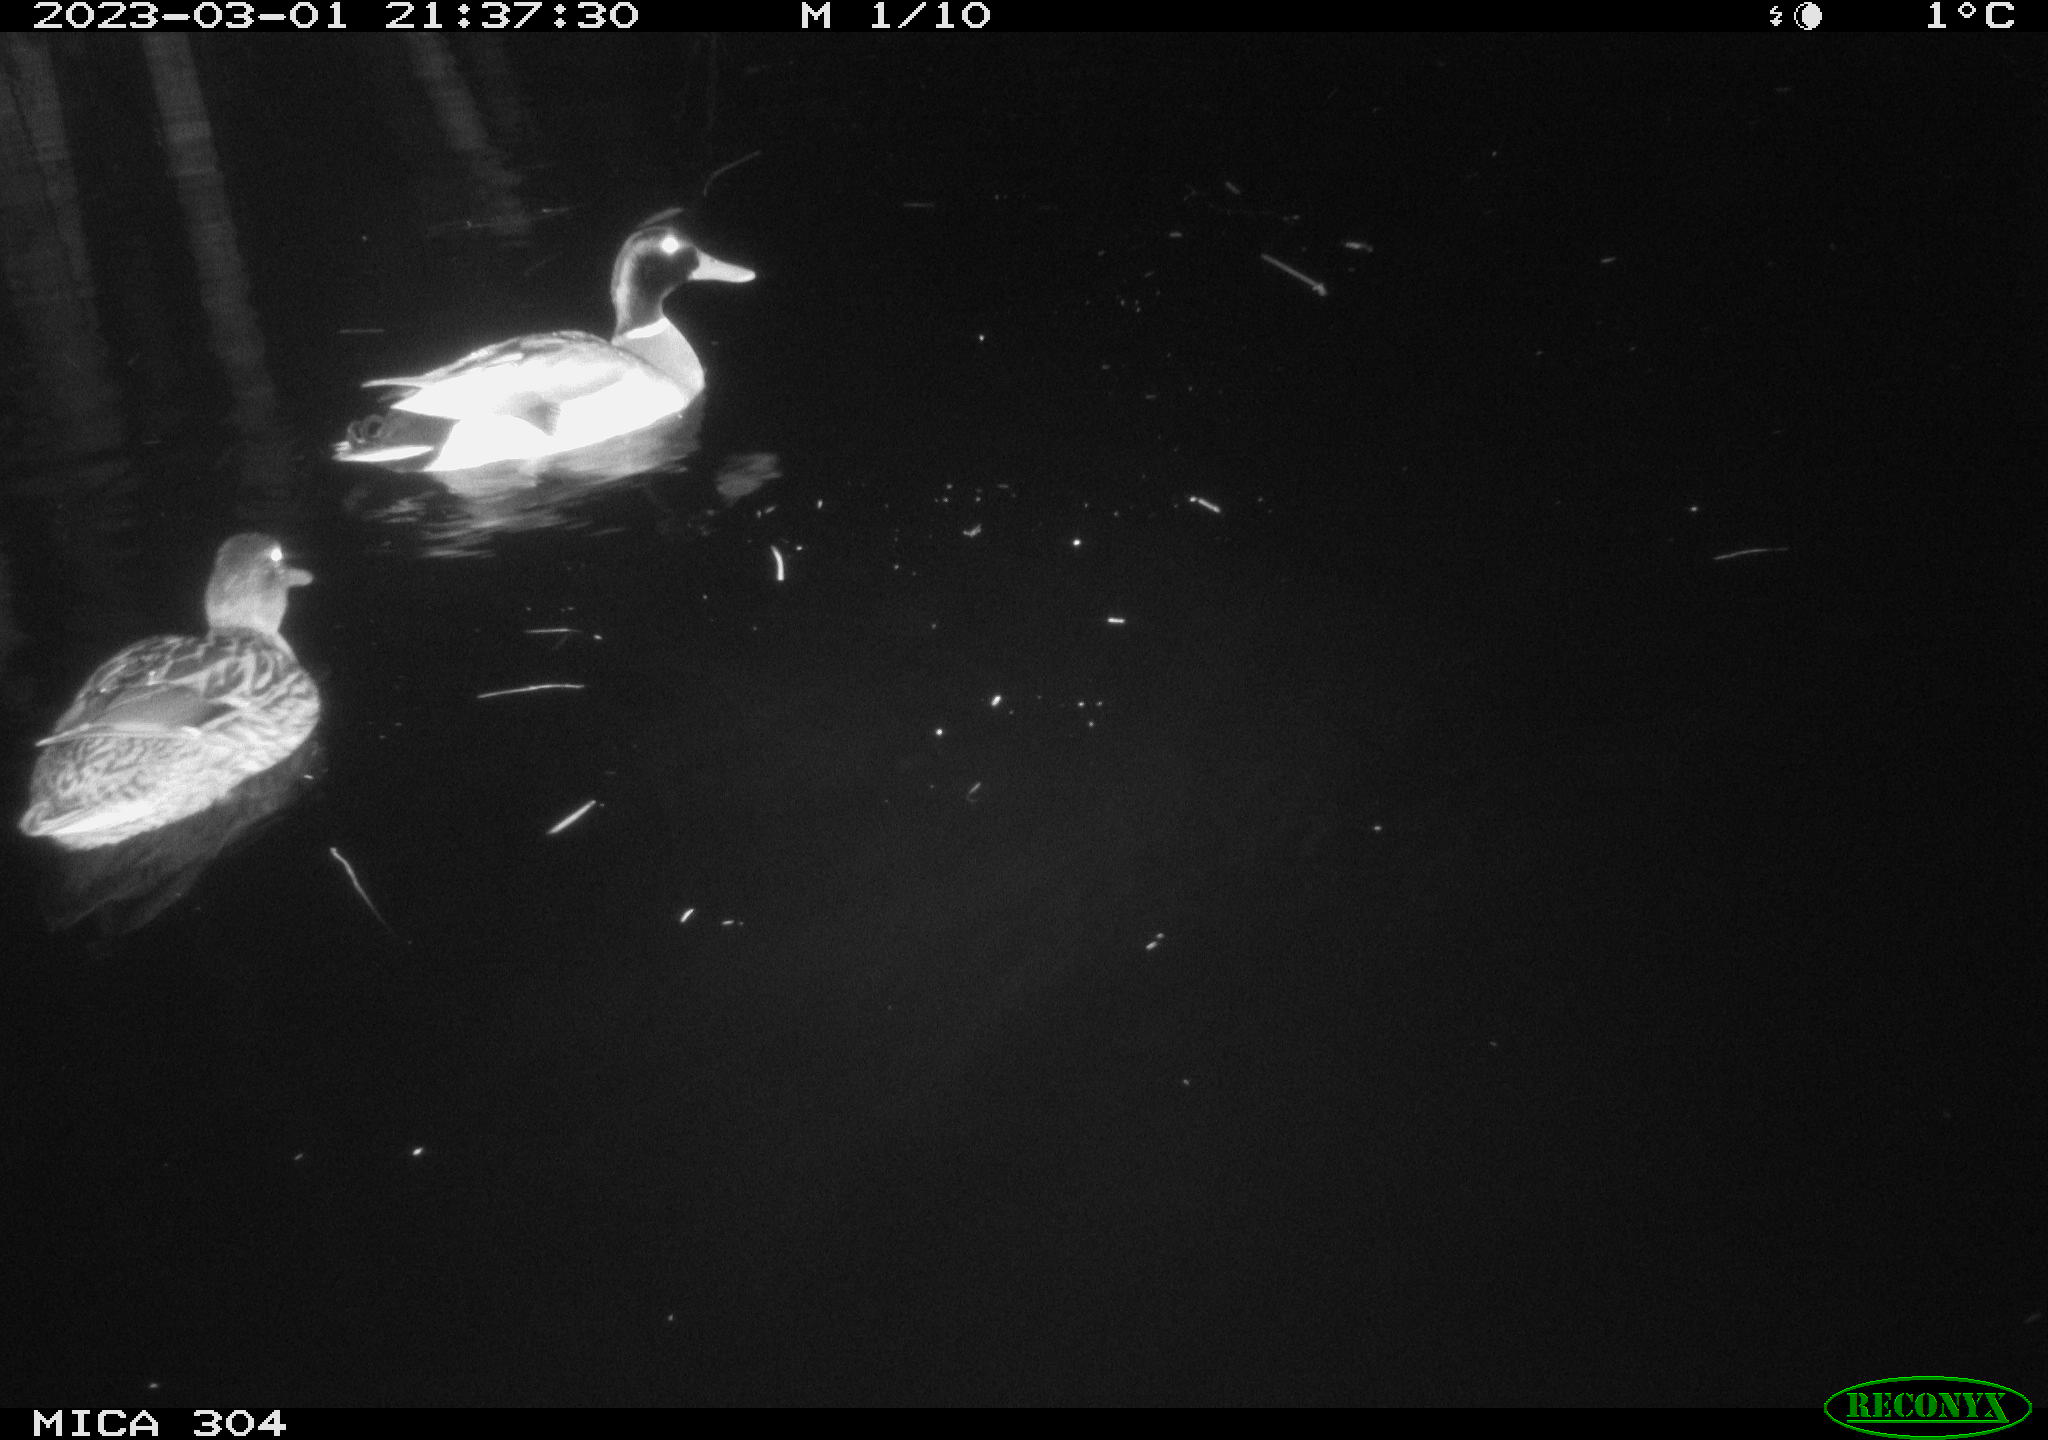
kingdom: Animalia
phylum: Chordata
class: Aves
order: Anseriformes
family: Anatidae
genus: Anas
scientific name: Anas
